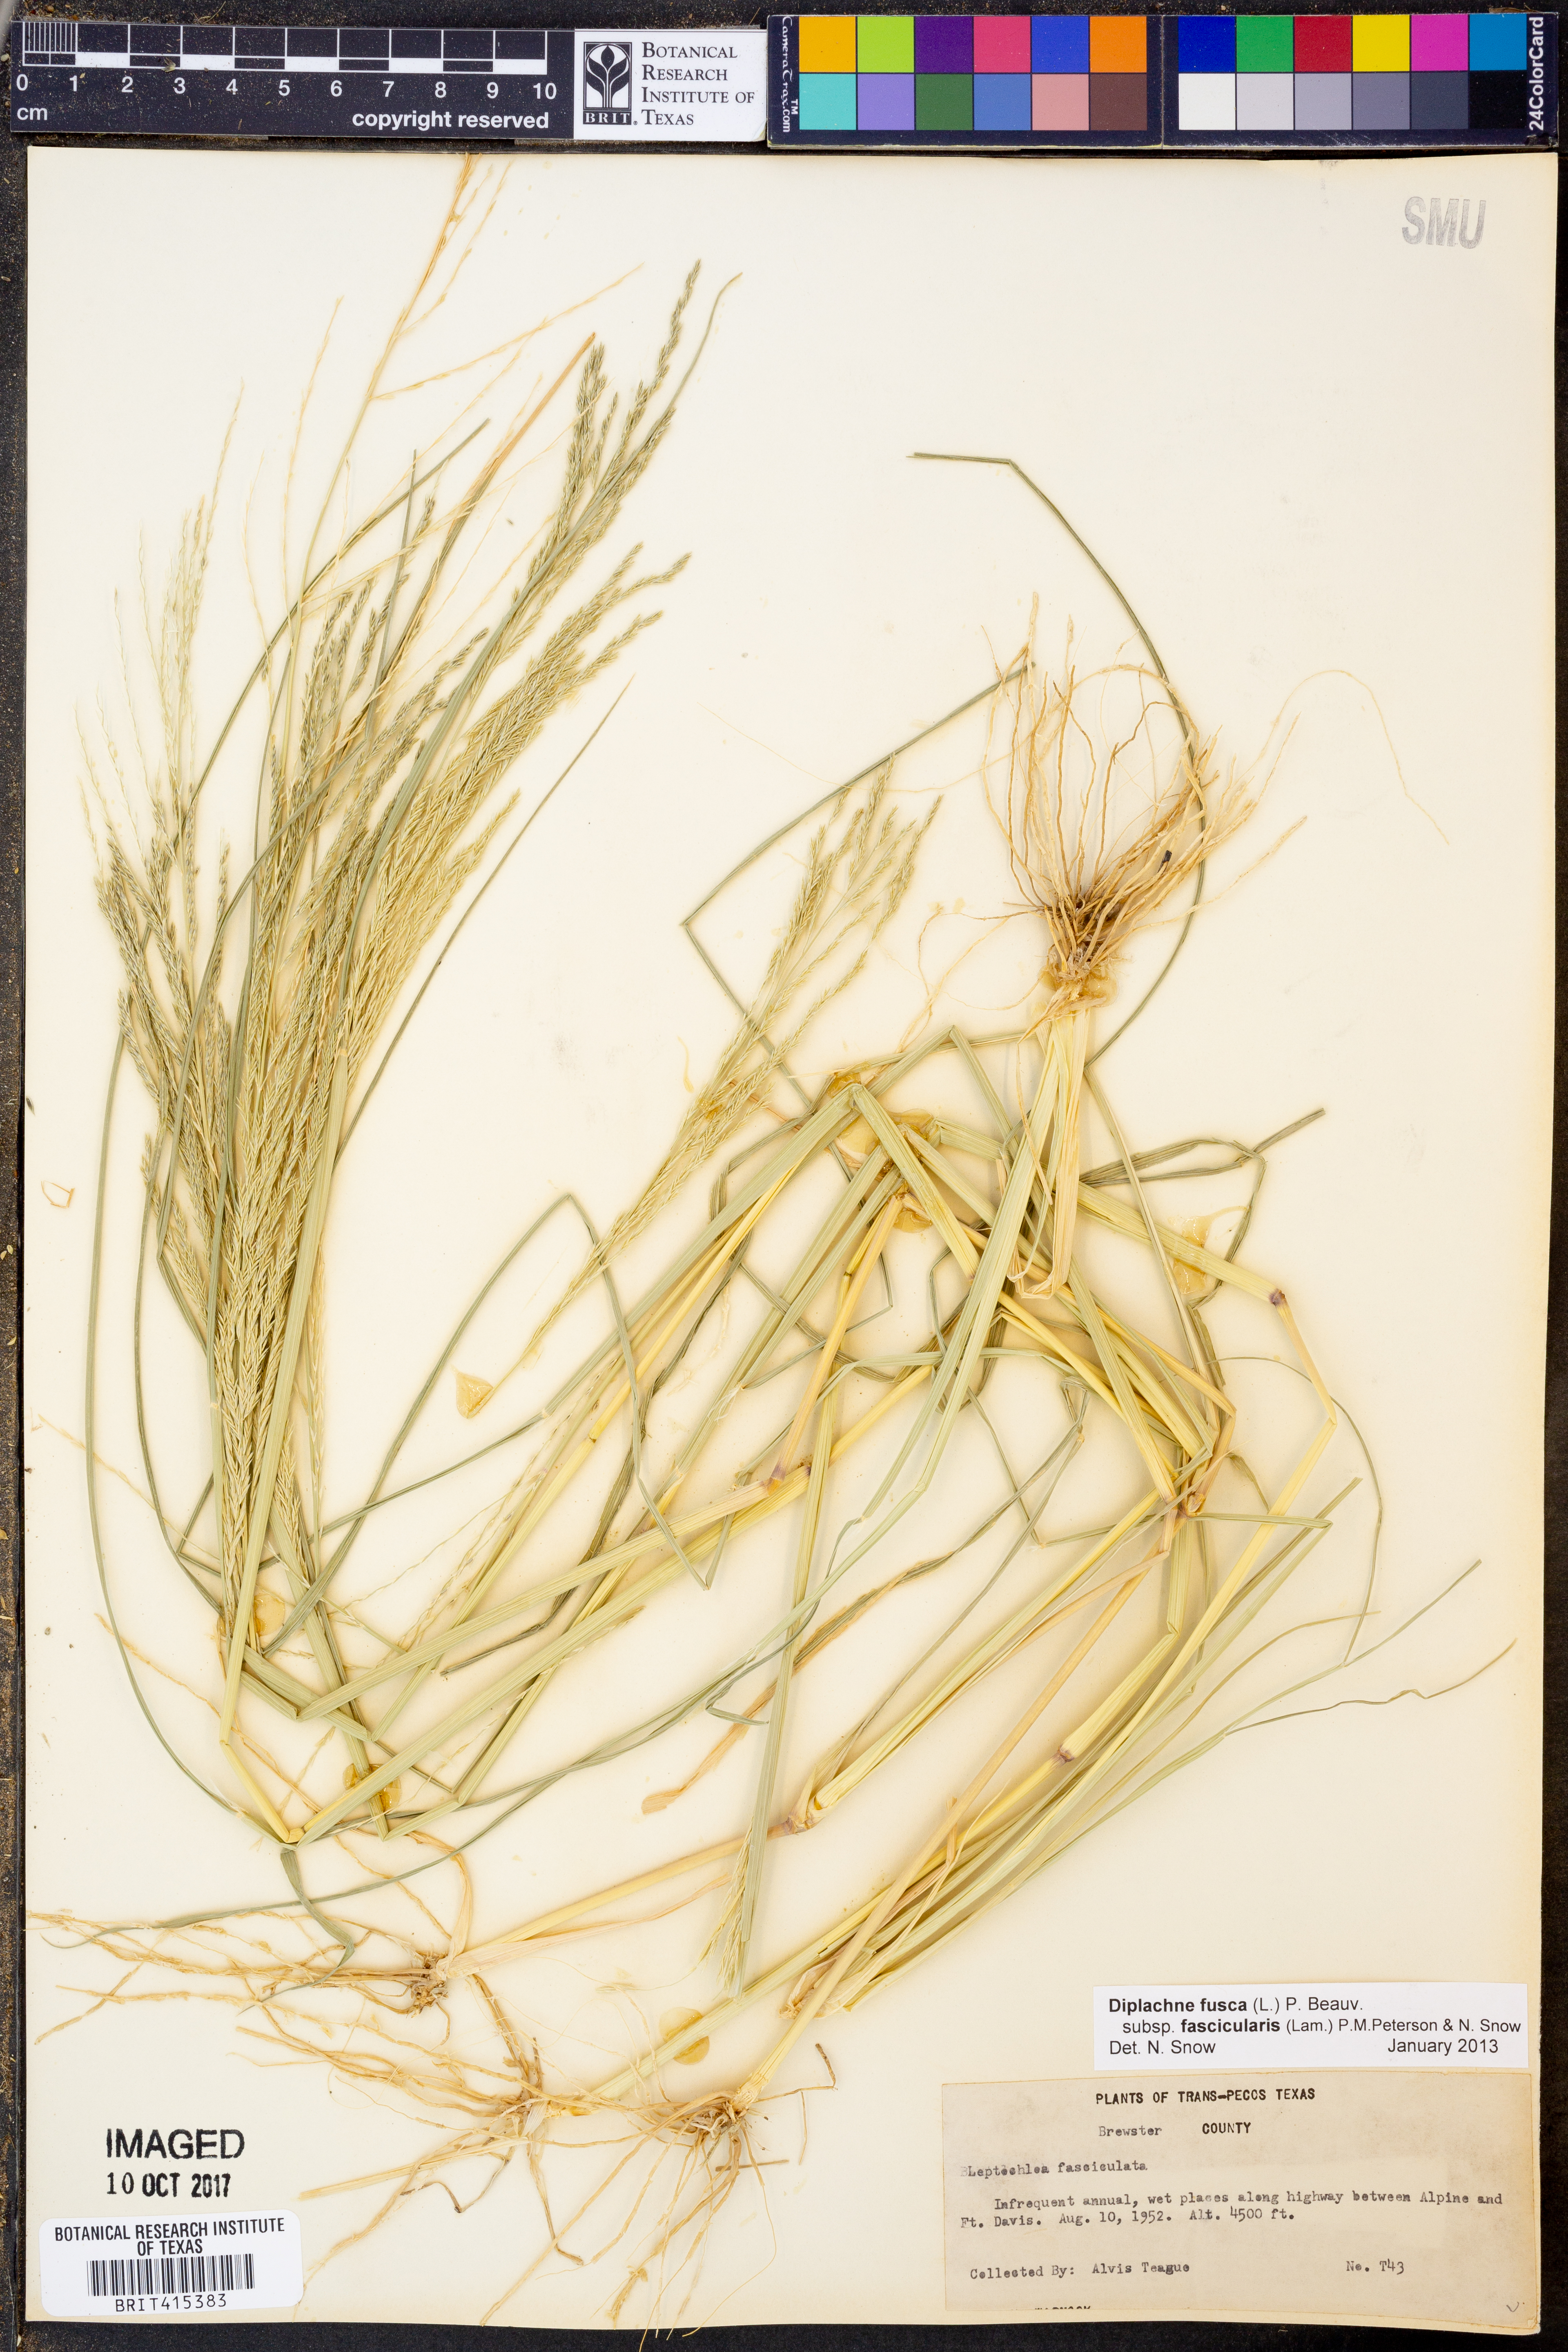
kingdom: Plantae
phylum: Tracheophyta
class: Liliopsida
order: Poales
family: Poaceae
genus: Diplachne
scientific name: Diplachne fusca
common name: Brown beetle grass
